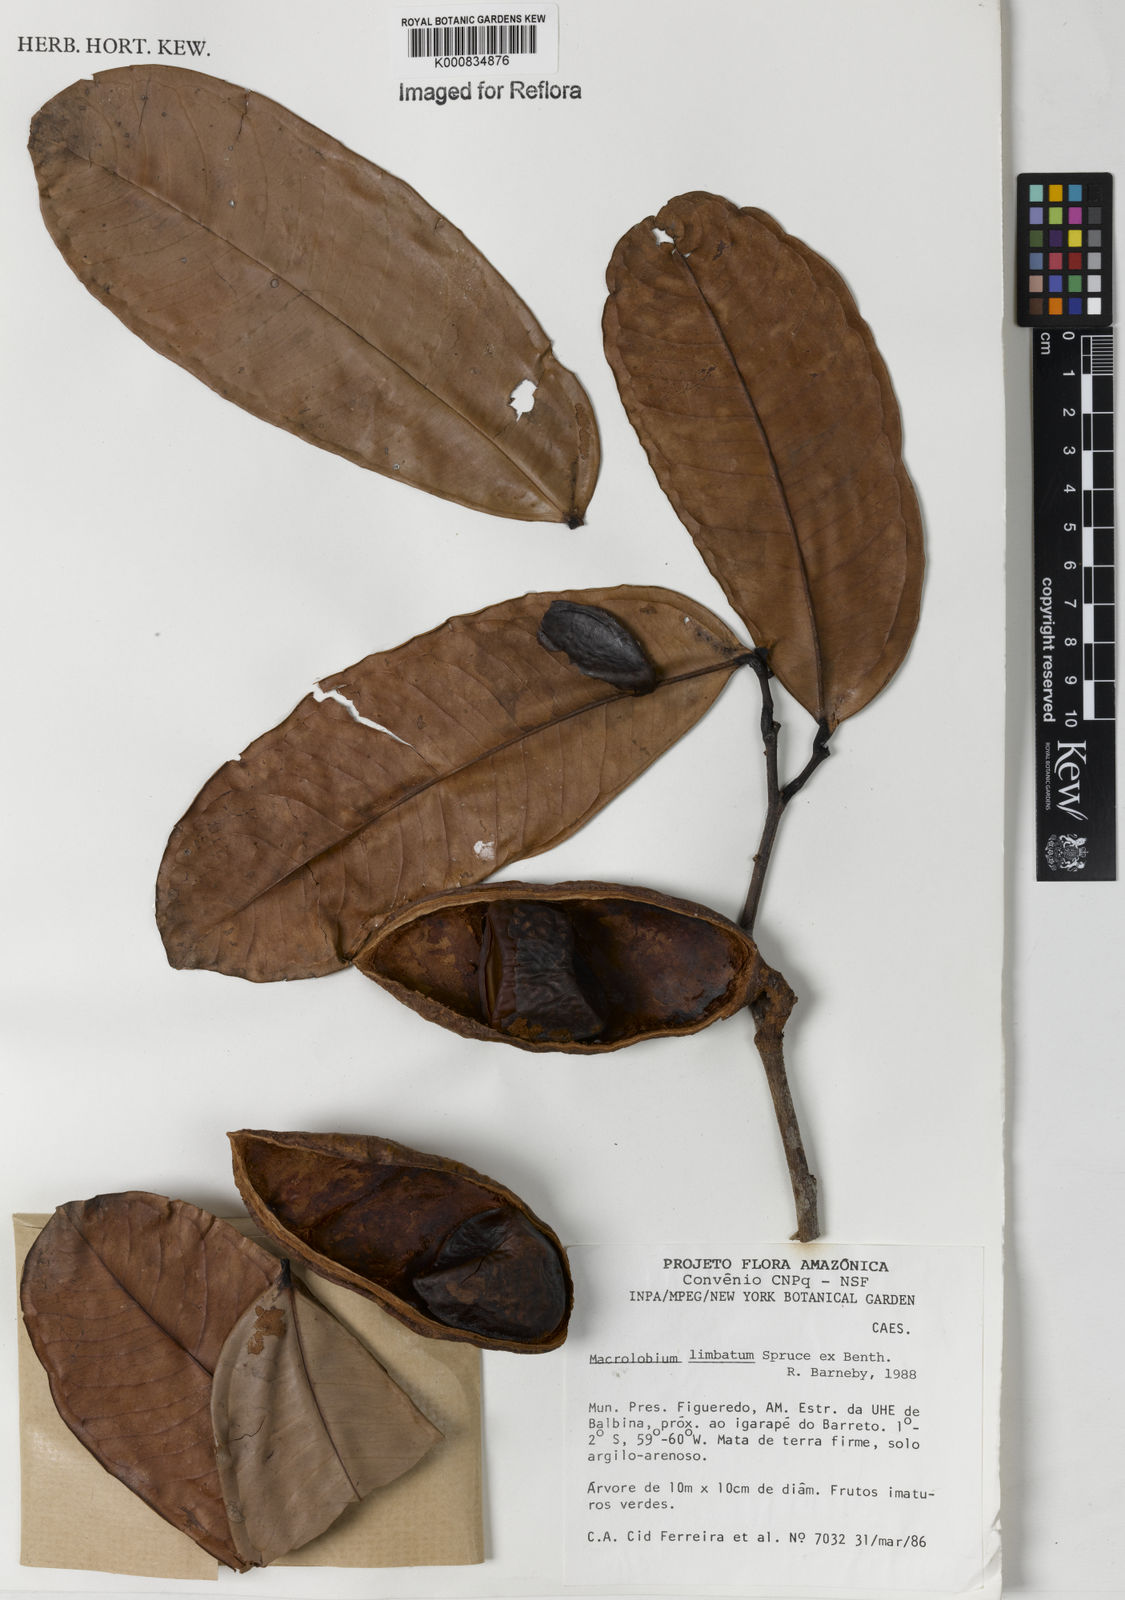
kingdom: Plantae
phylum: Tracheophyta
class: Magnoliopsida
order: Fabales
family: Fabaceae
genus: Macrolobium
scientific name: Macrolobium limbatum
